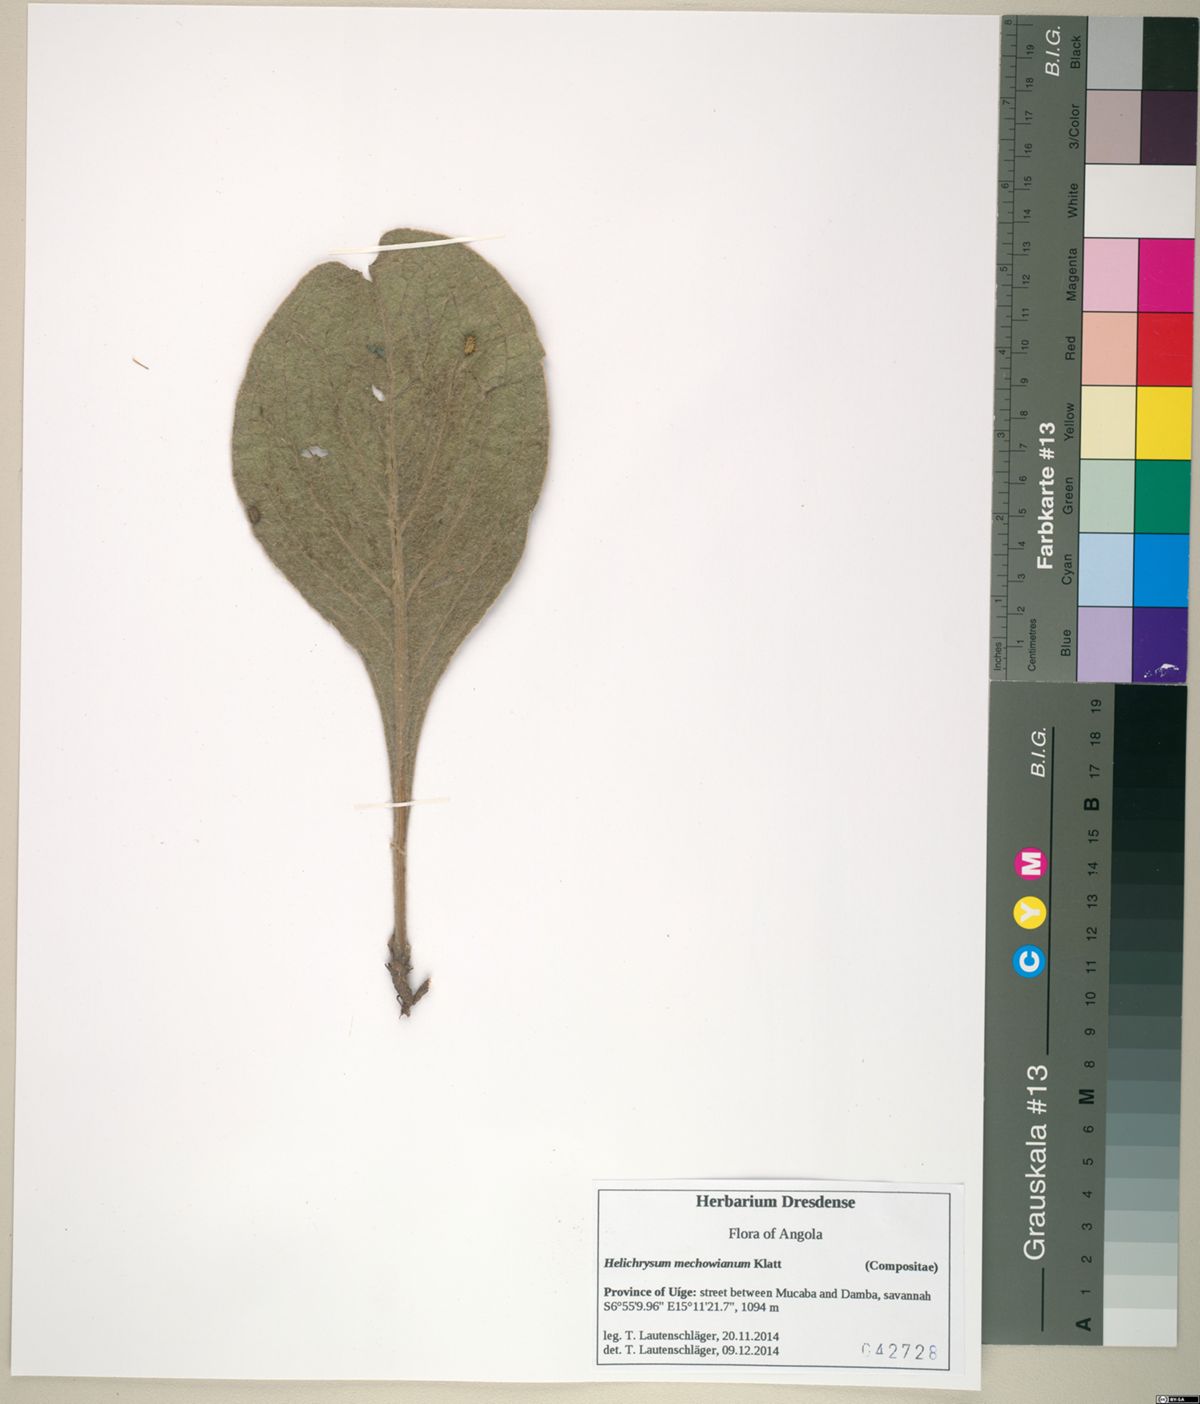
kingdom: Plantae
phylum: Tracheophyta
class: Magnoliopsida
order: Asterales
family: Asteraceae
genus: Helichrysum
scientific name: Helichrysum mechowianum
